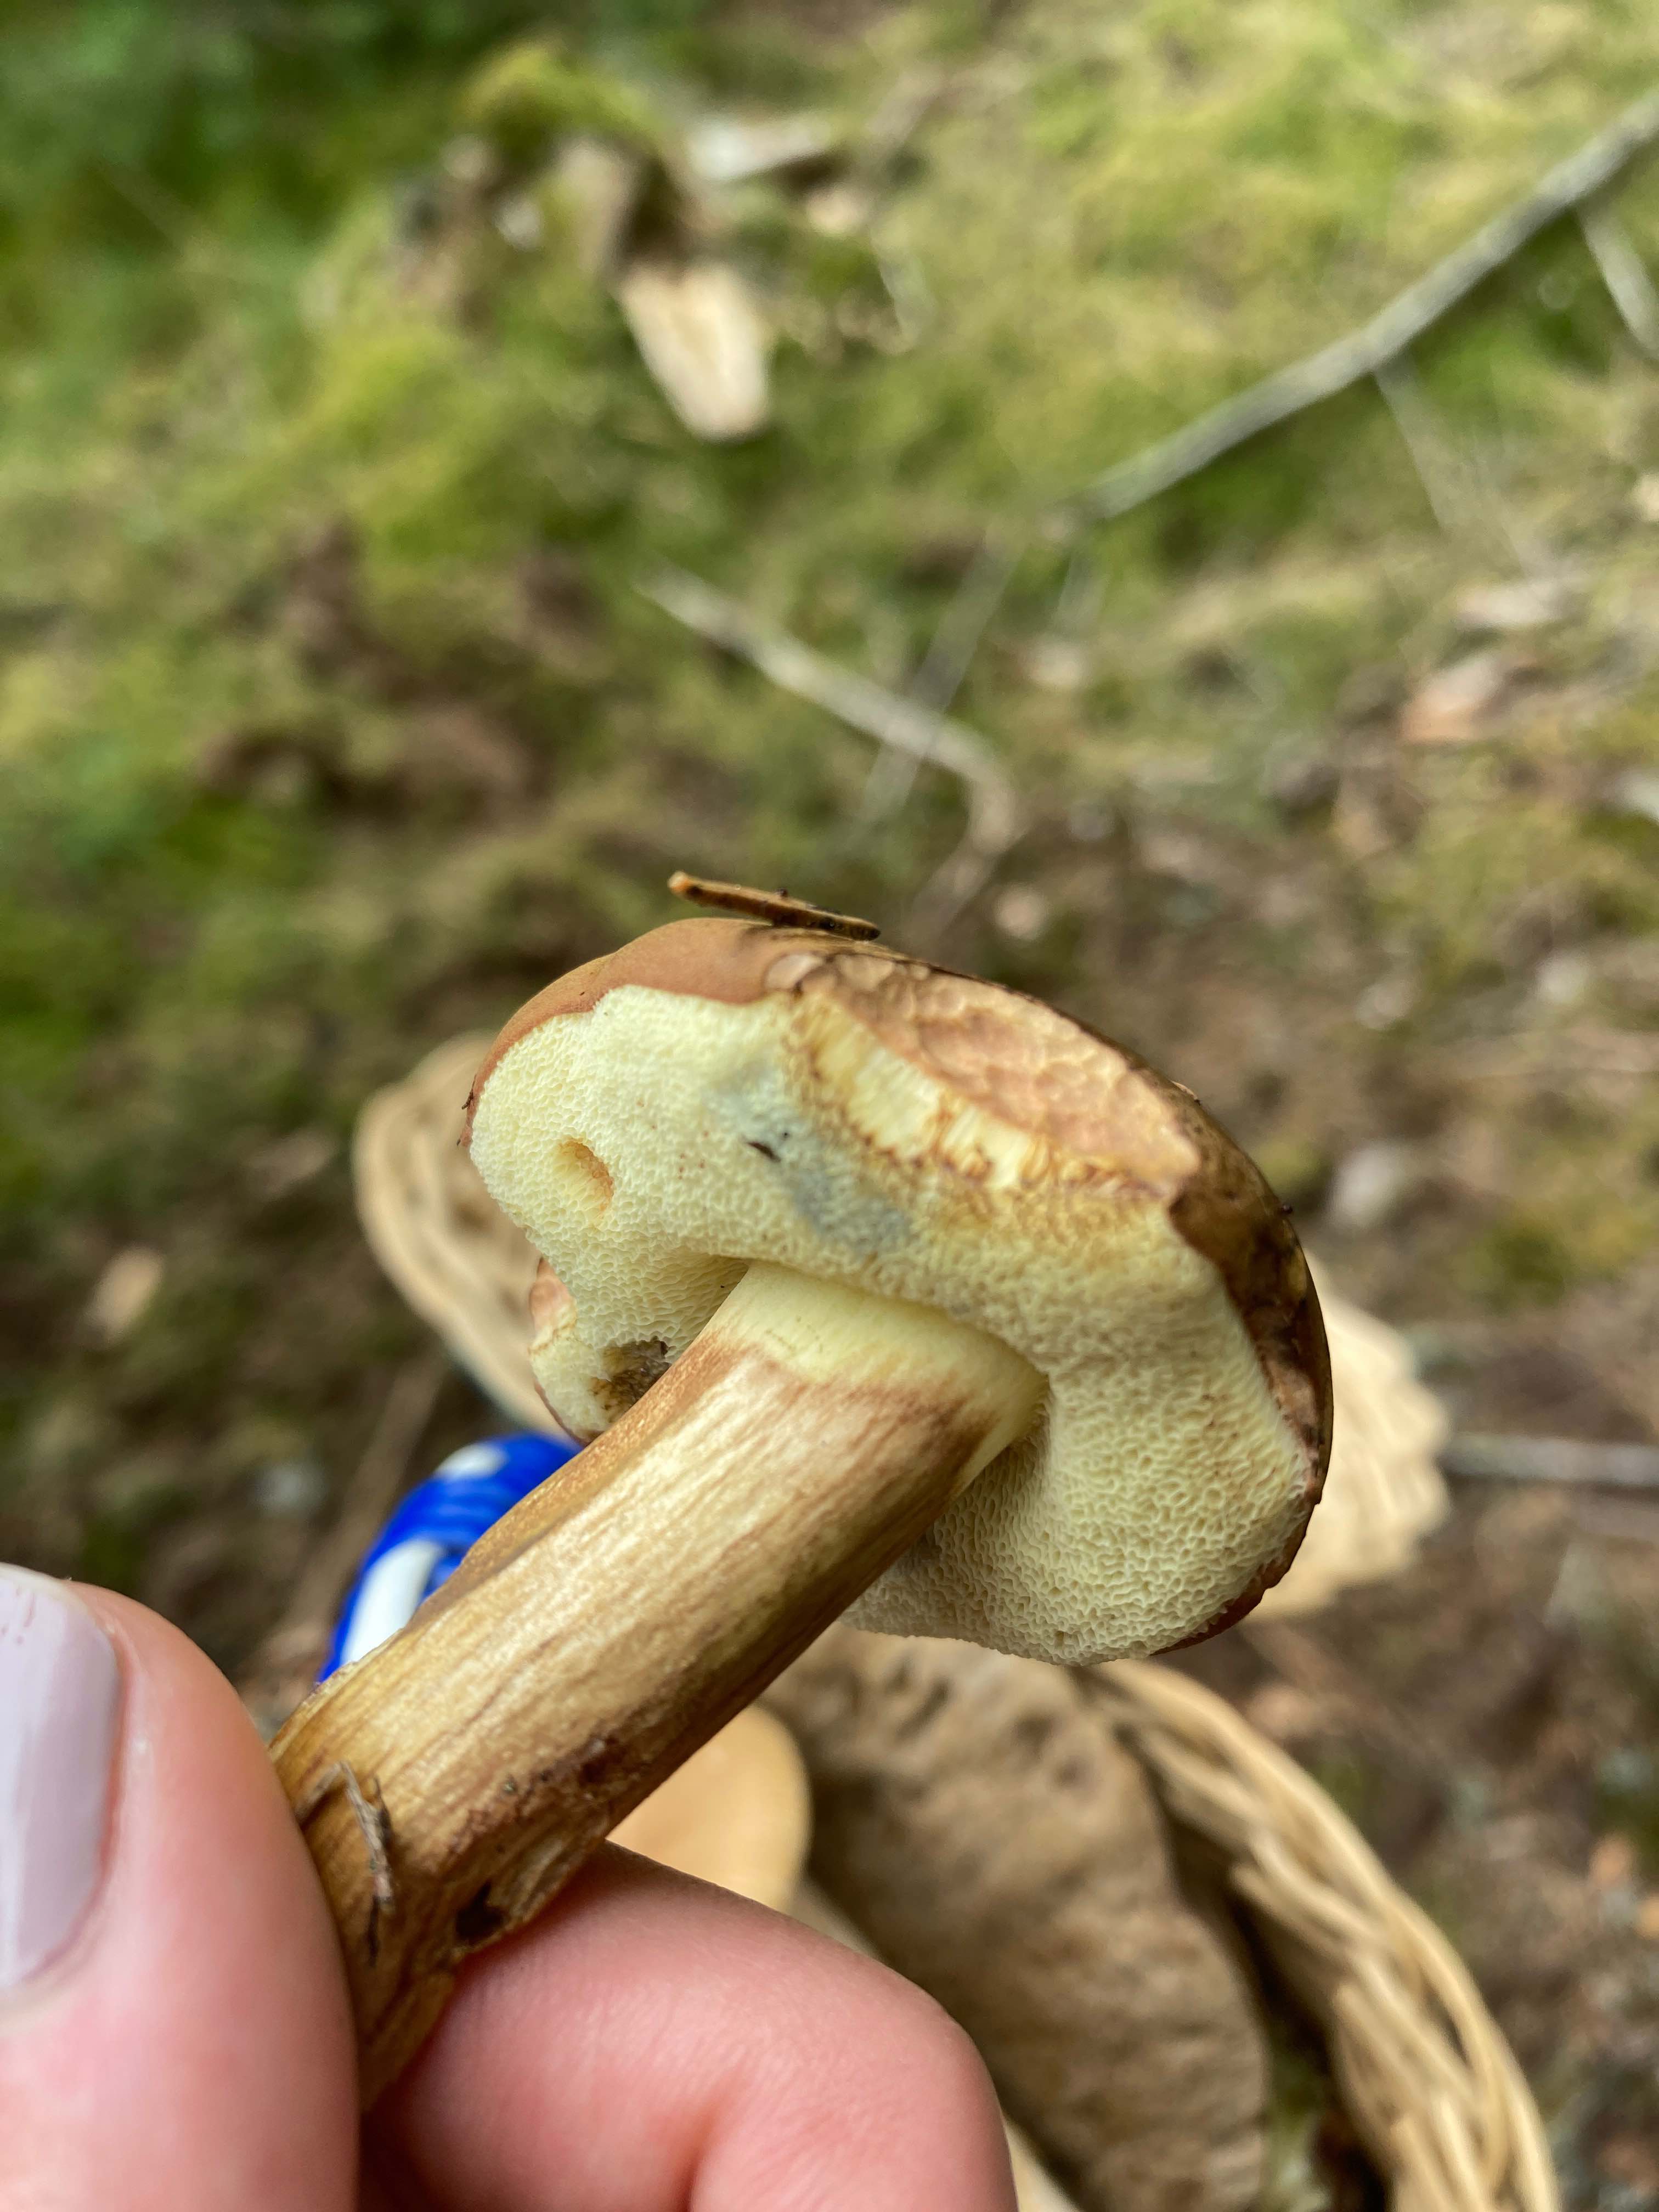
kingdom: Fungi
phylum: Basidiomycota
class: Agaricomycetes
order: Boletales
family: Boletaceae
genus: Imleria
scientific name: Imleria badia
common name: brunstokket rørhat
